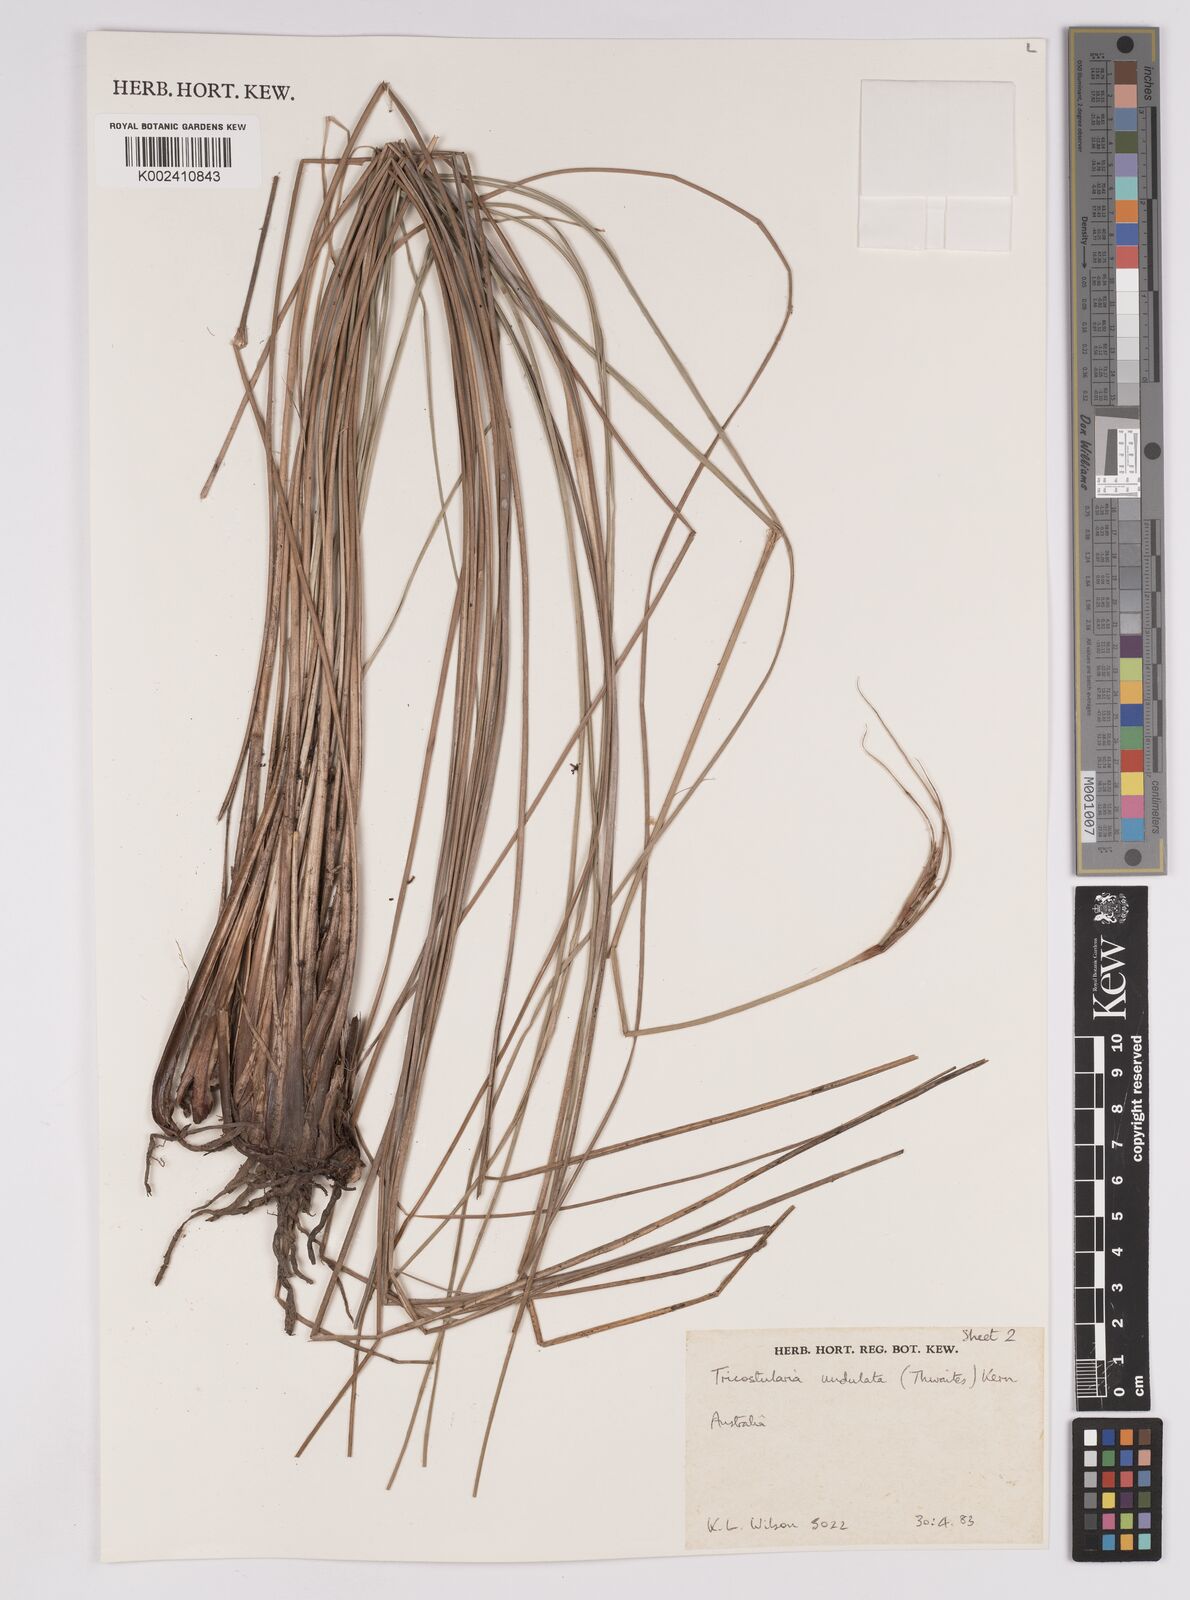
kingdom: Plantae
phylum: Tracheophyta
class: Liliopsida
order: Poales
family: Cyperaceae
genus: Anthelepis
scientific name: Anthelepis undulata
